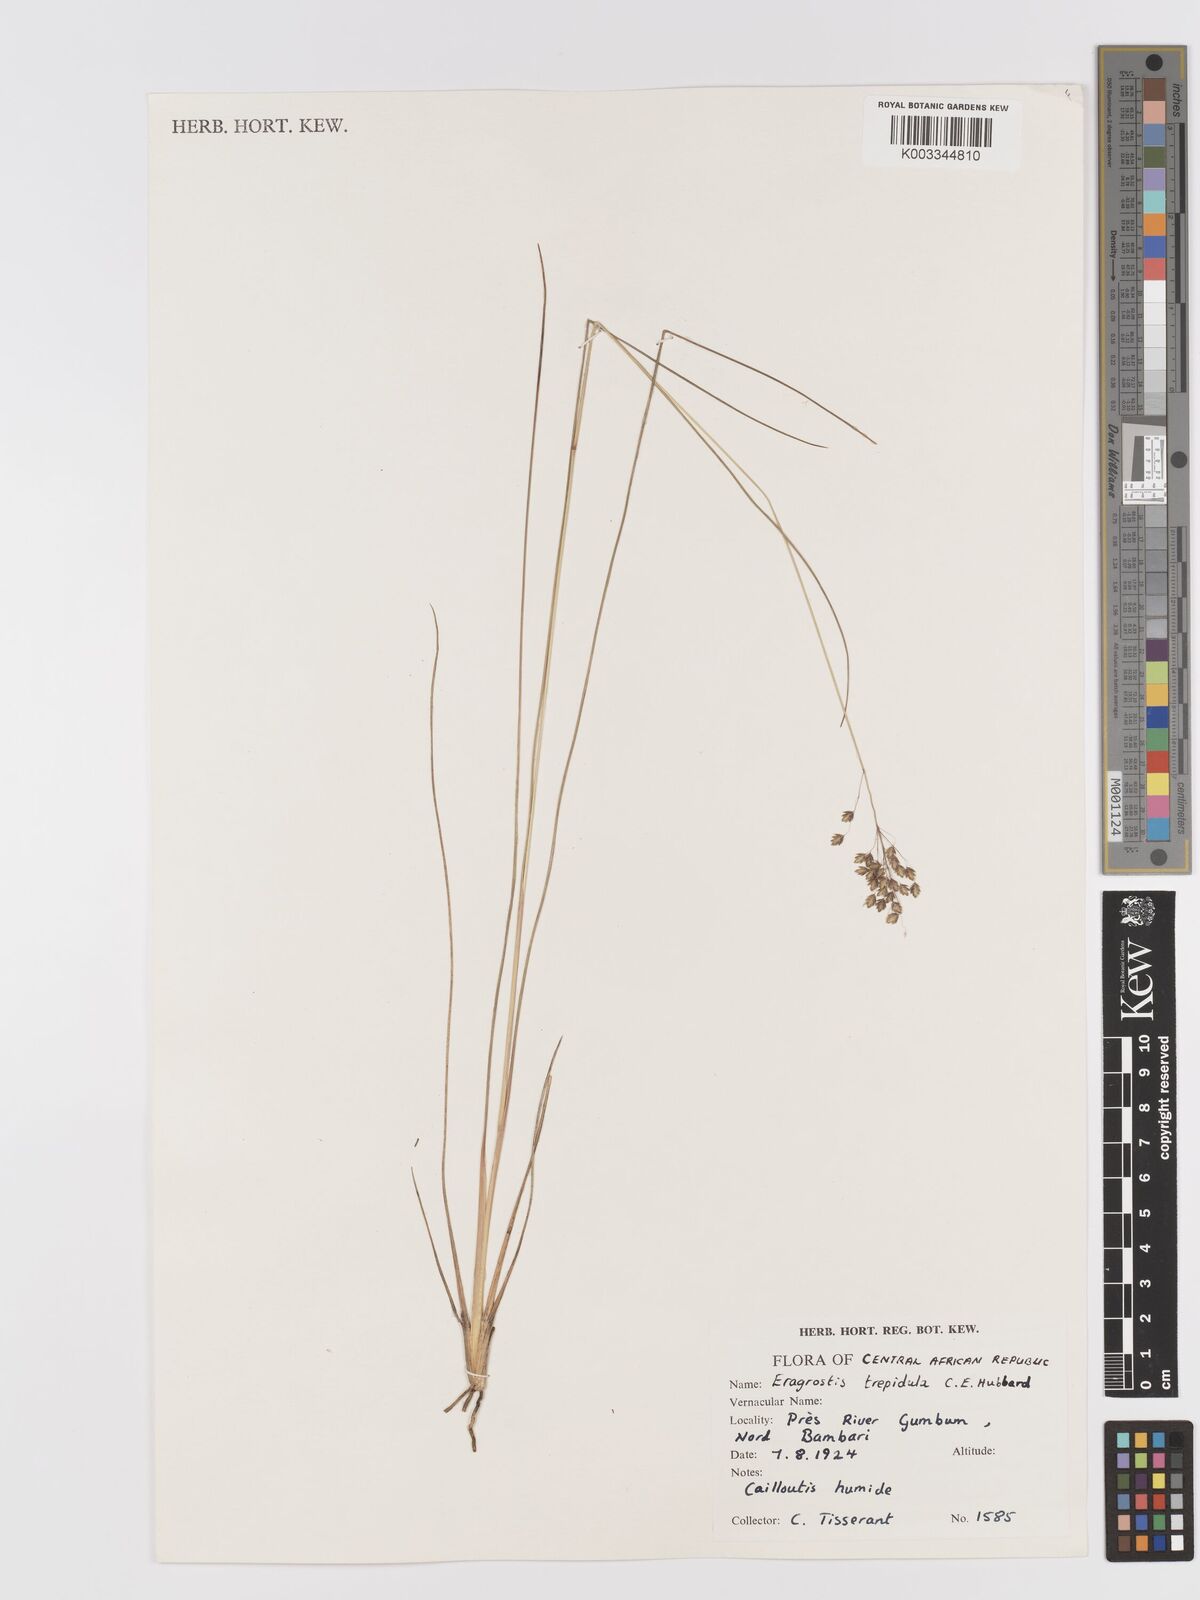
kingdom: Plantae
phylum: Tracheophyta
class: Liliopsida
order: Poales
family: Poaceae
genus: Eragrostis
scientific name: Eragrostis plurigluma
